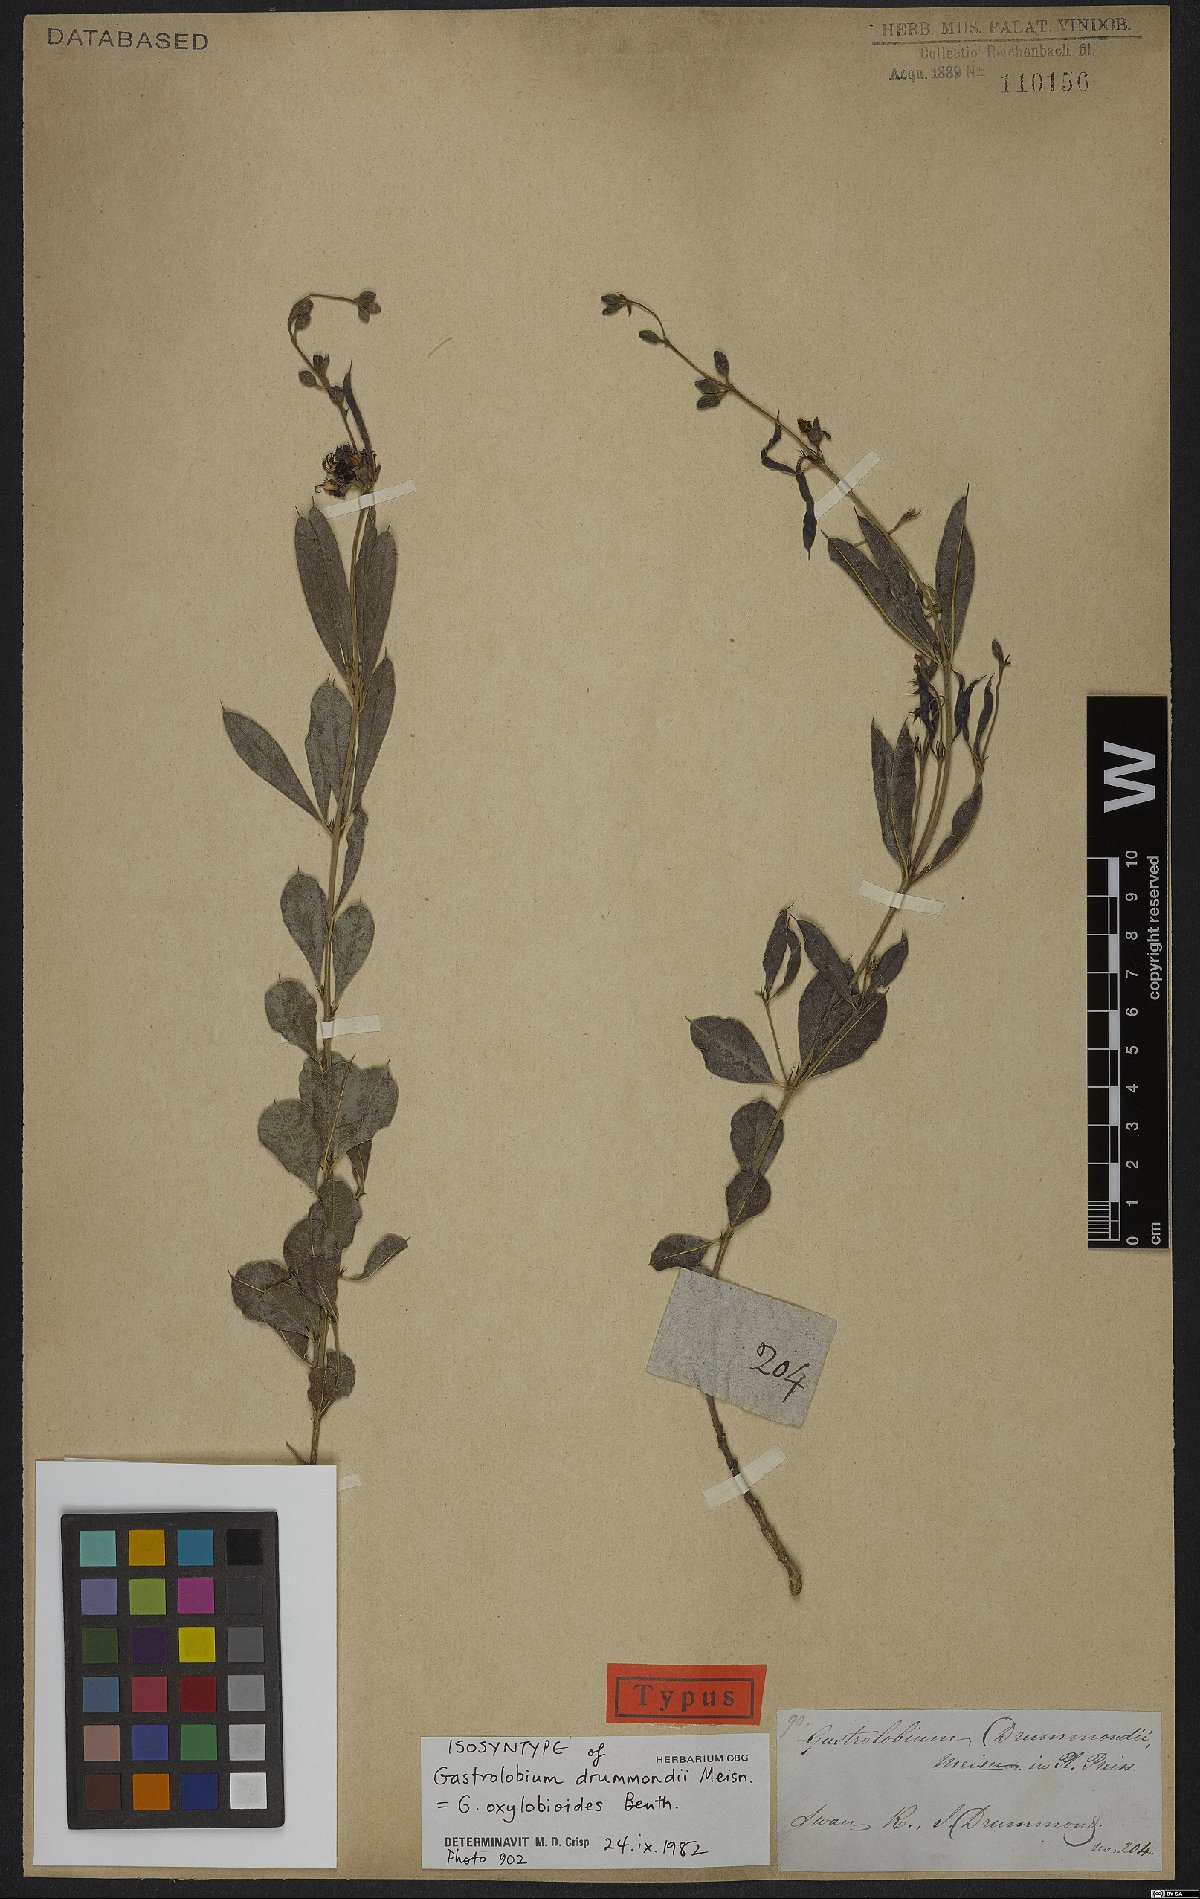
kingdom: Plantae
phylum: Tracheophyta
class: Magnoliopsida
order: Fabales
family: Fabaceae
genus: Gastrolobium
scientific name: Gastrolobium oxylobioides
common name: Champion bay poison
